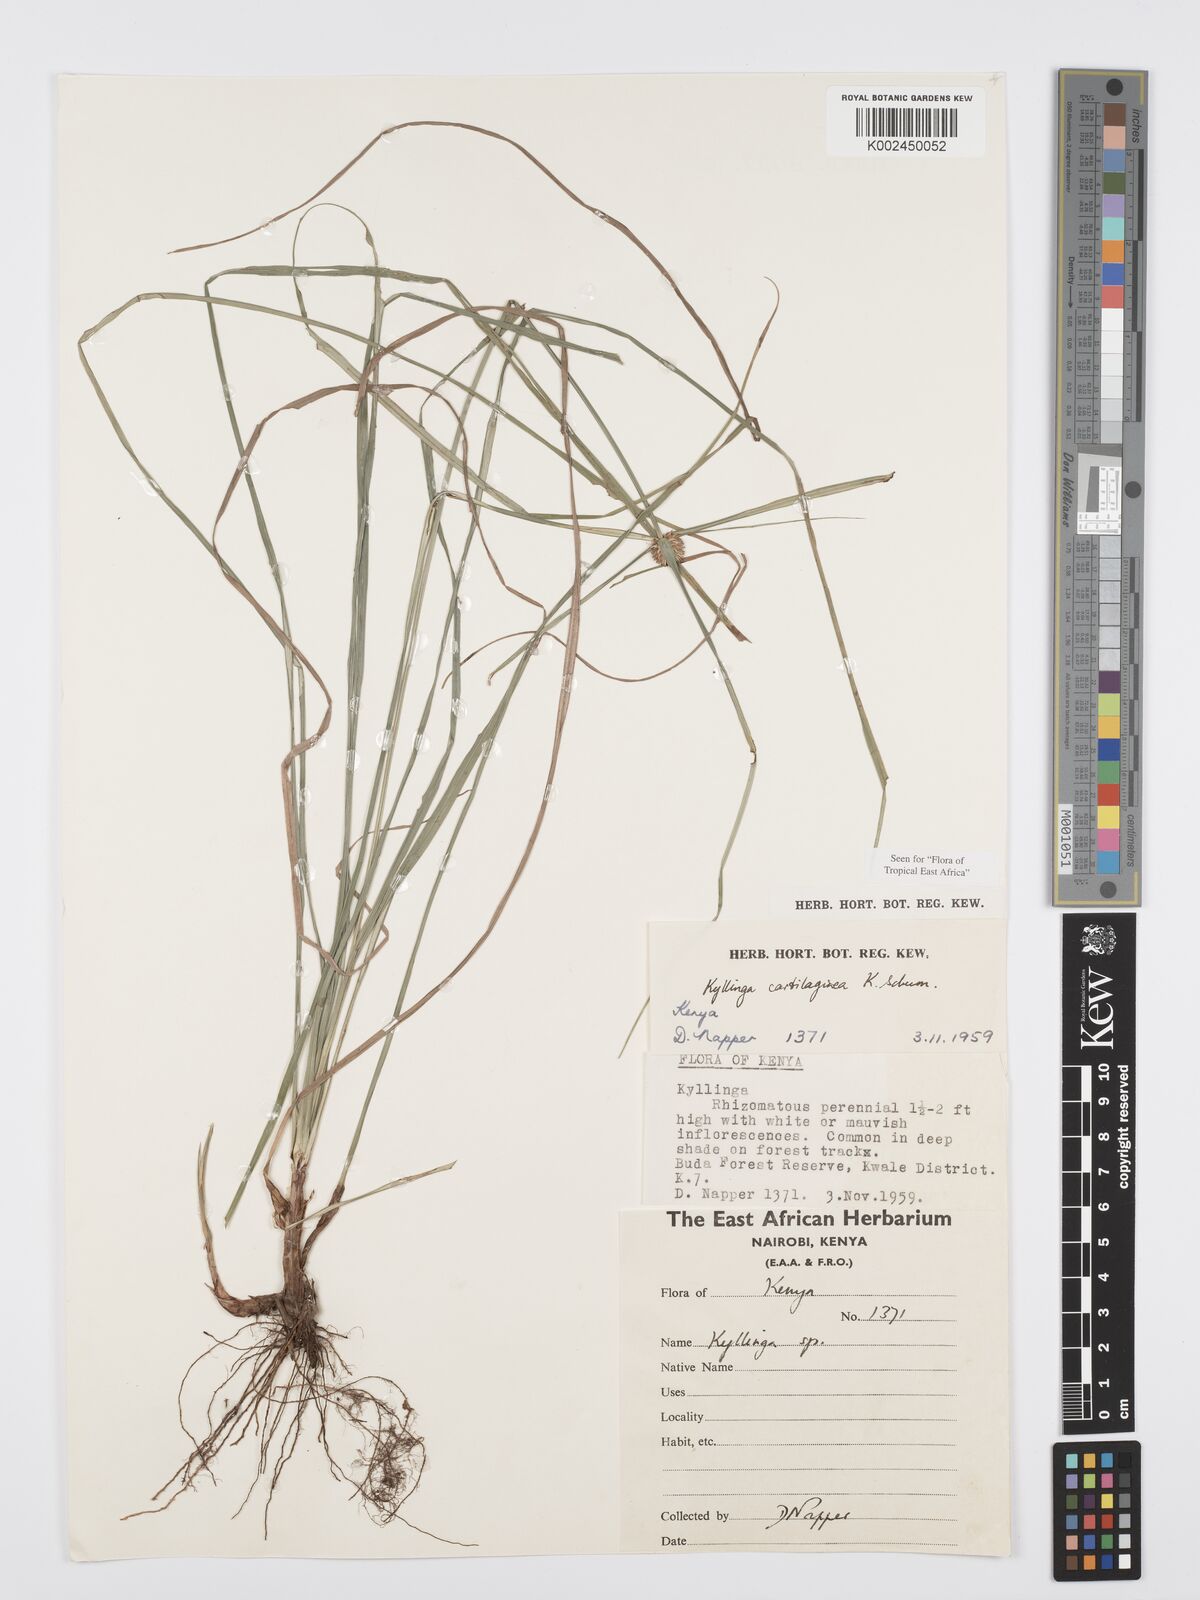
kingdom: Plantae
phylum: Tracheophyta
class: Liliopsida
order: Poales
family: Cyperaceae
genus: Cyperus
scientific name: Cyperus cartilagineus
